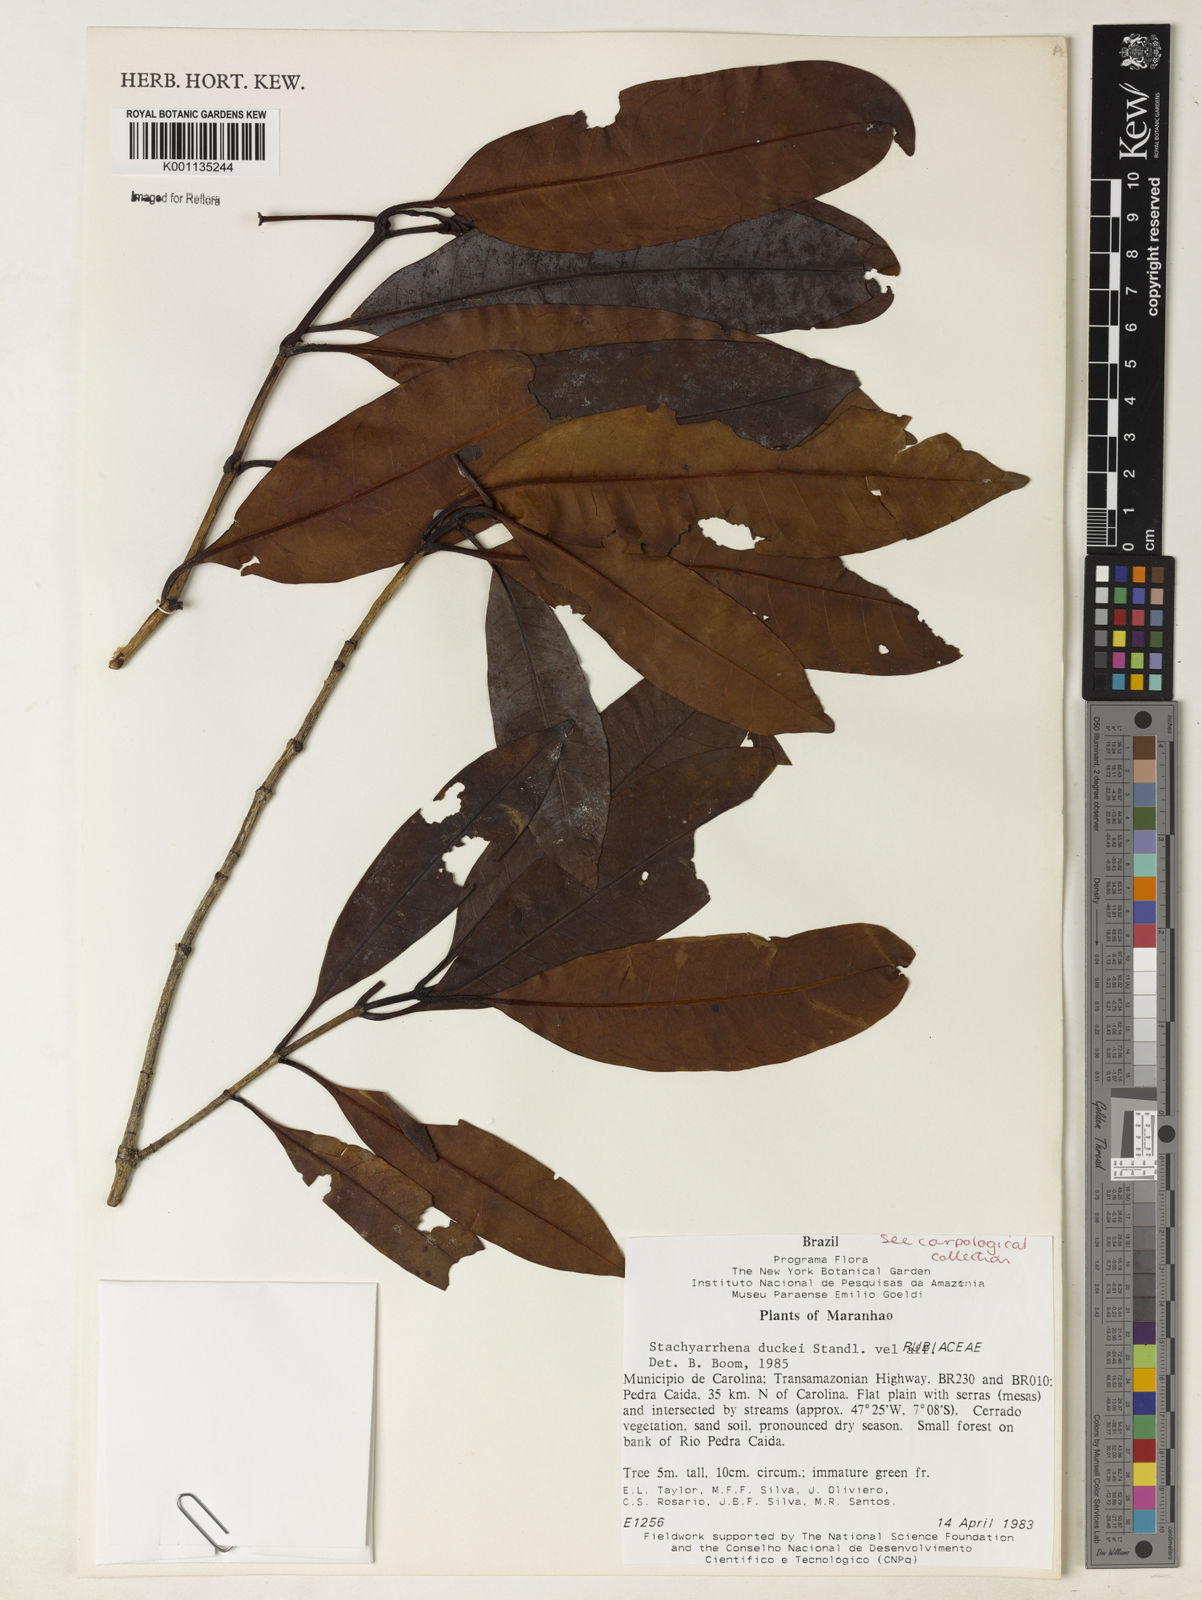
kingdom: Plantae
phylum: Tracheophyta
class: Magnoliopsida
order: Gentianales
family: Rubiaceae
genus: Stachyarrhena
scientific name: Stachyarrhena
